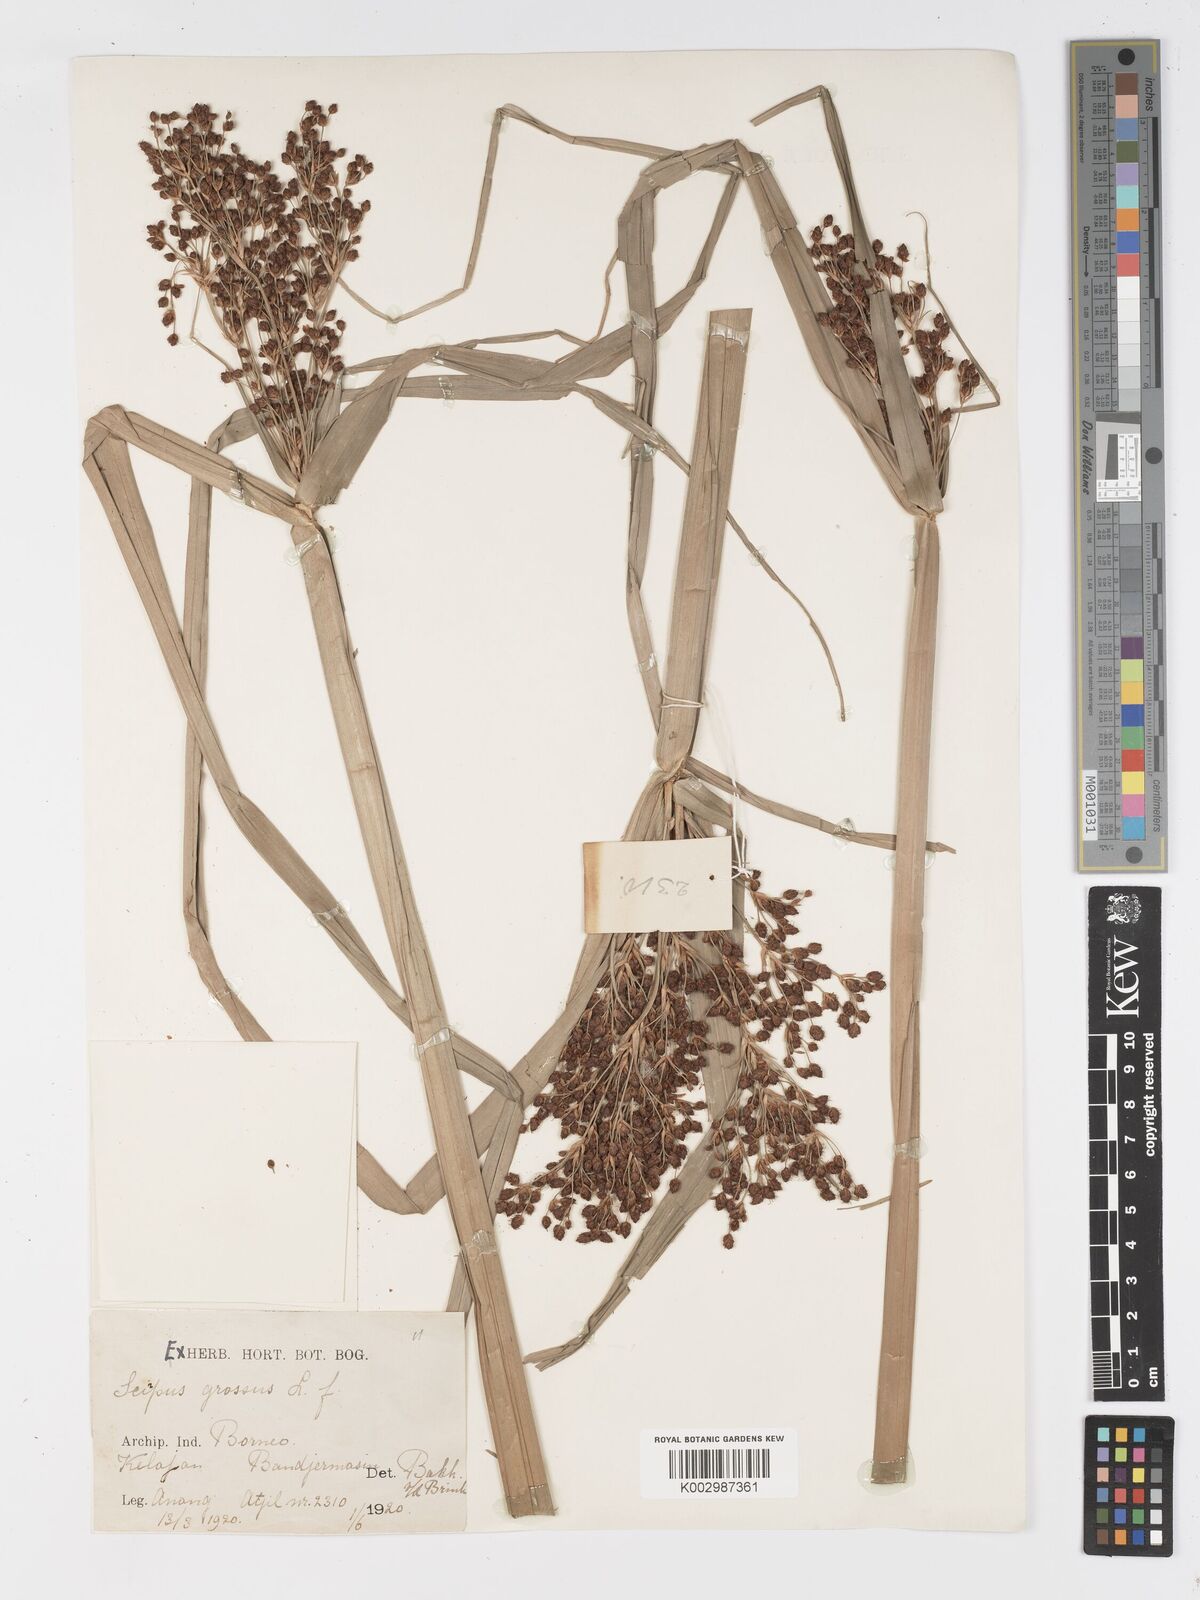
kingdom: Plantae
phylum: Tracheophyta
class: Liliopsida
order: Poales
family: Cyperaceae
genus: Actinoscirpus
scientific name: Actinoscirpus grossus
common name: Giant bur rush
